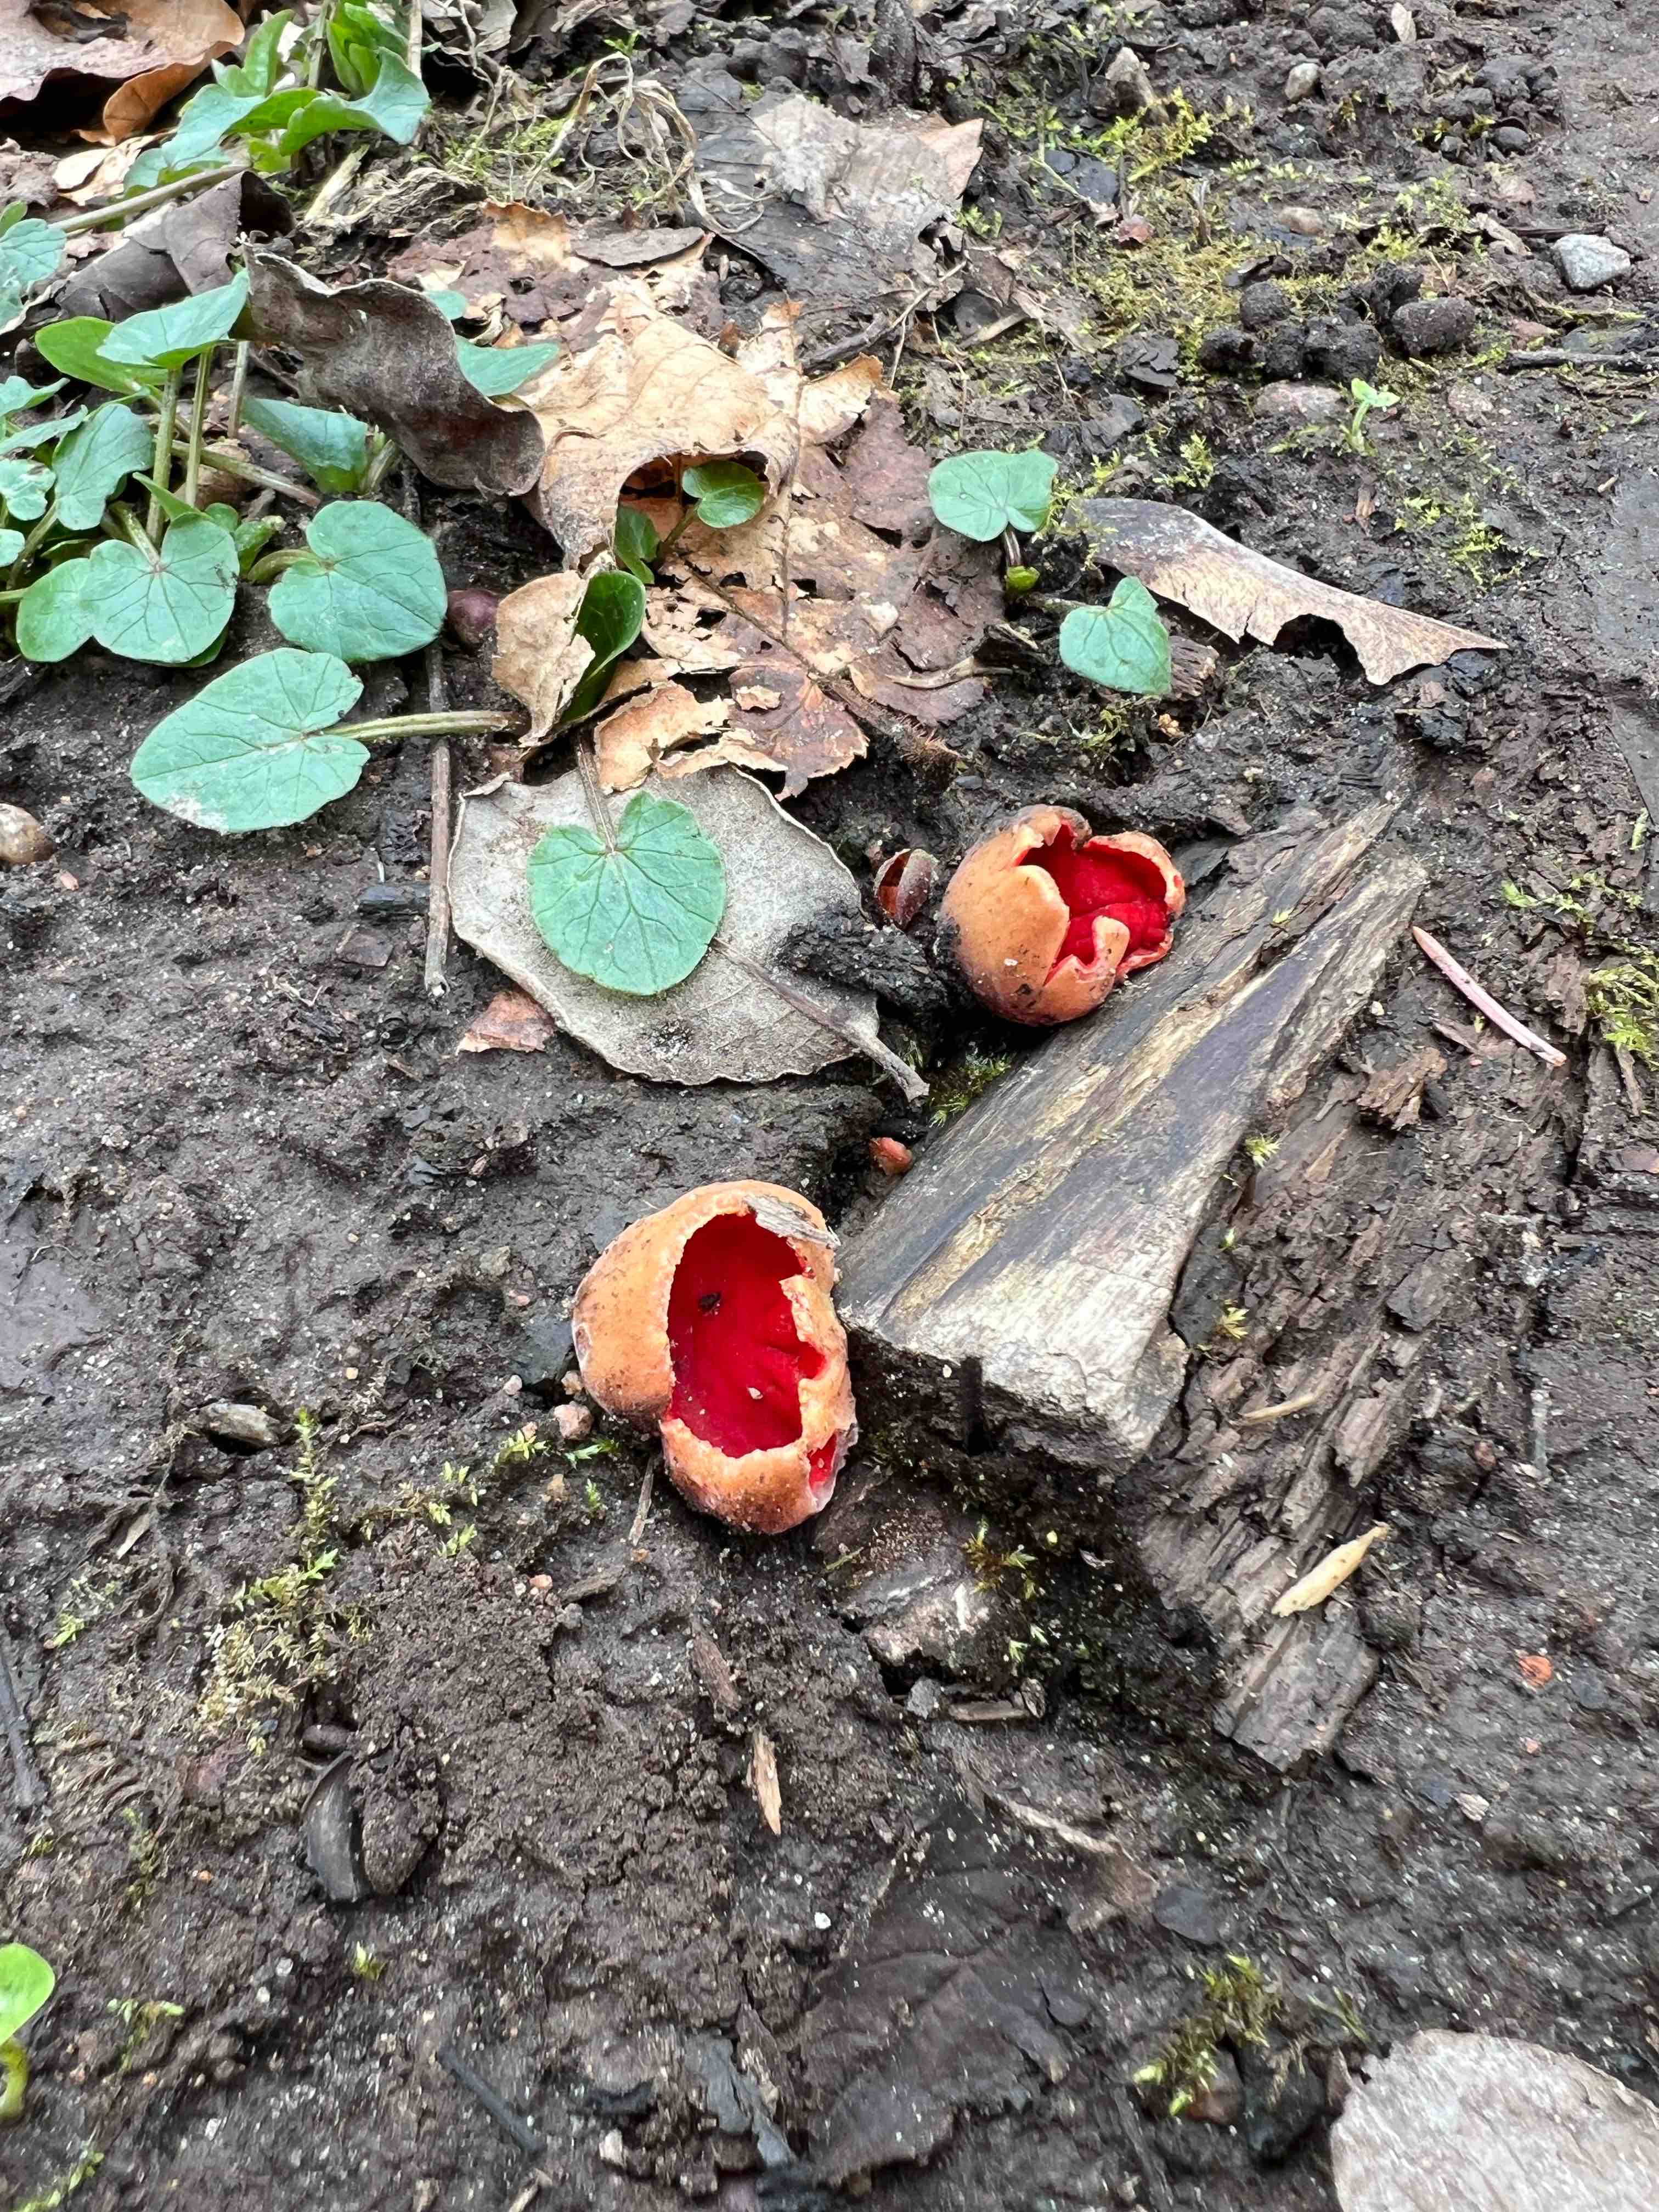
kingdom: Fungi
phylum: Ascomycota
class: Pezizomycetes
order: Pezizales
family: Sarcoscyphaceae
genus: Sarcoscypha
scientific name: Sarcoscypha
